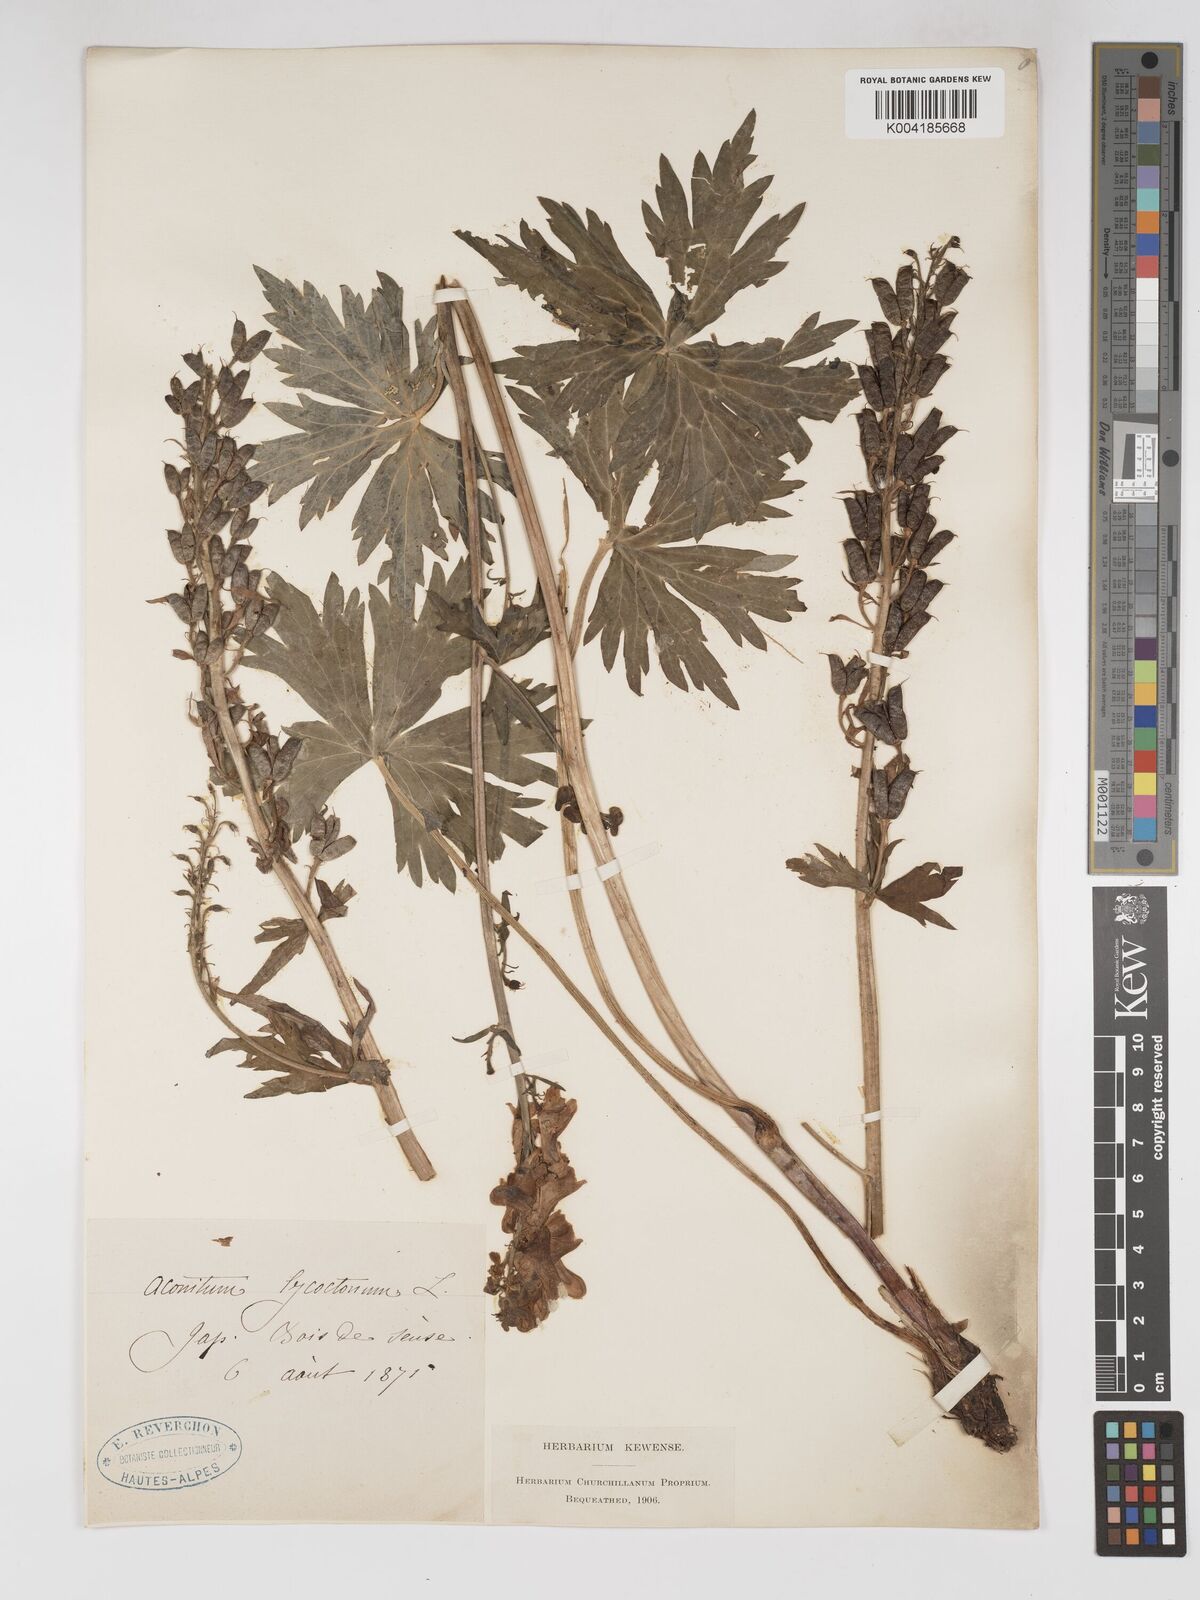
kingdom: Plantae
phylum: Tracheophyta
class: Magnoliopsida
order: Ranunculales
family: Ranunculaceae
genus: Aconitum
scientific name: Aconitum lycoctonum
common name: Wolf's-bane
